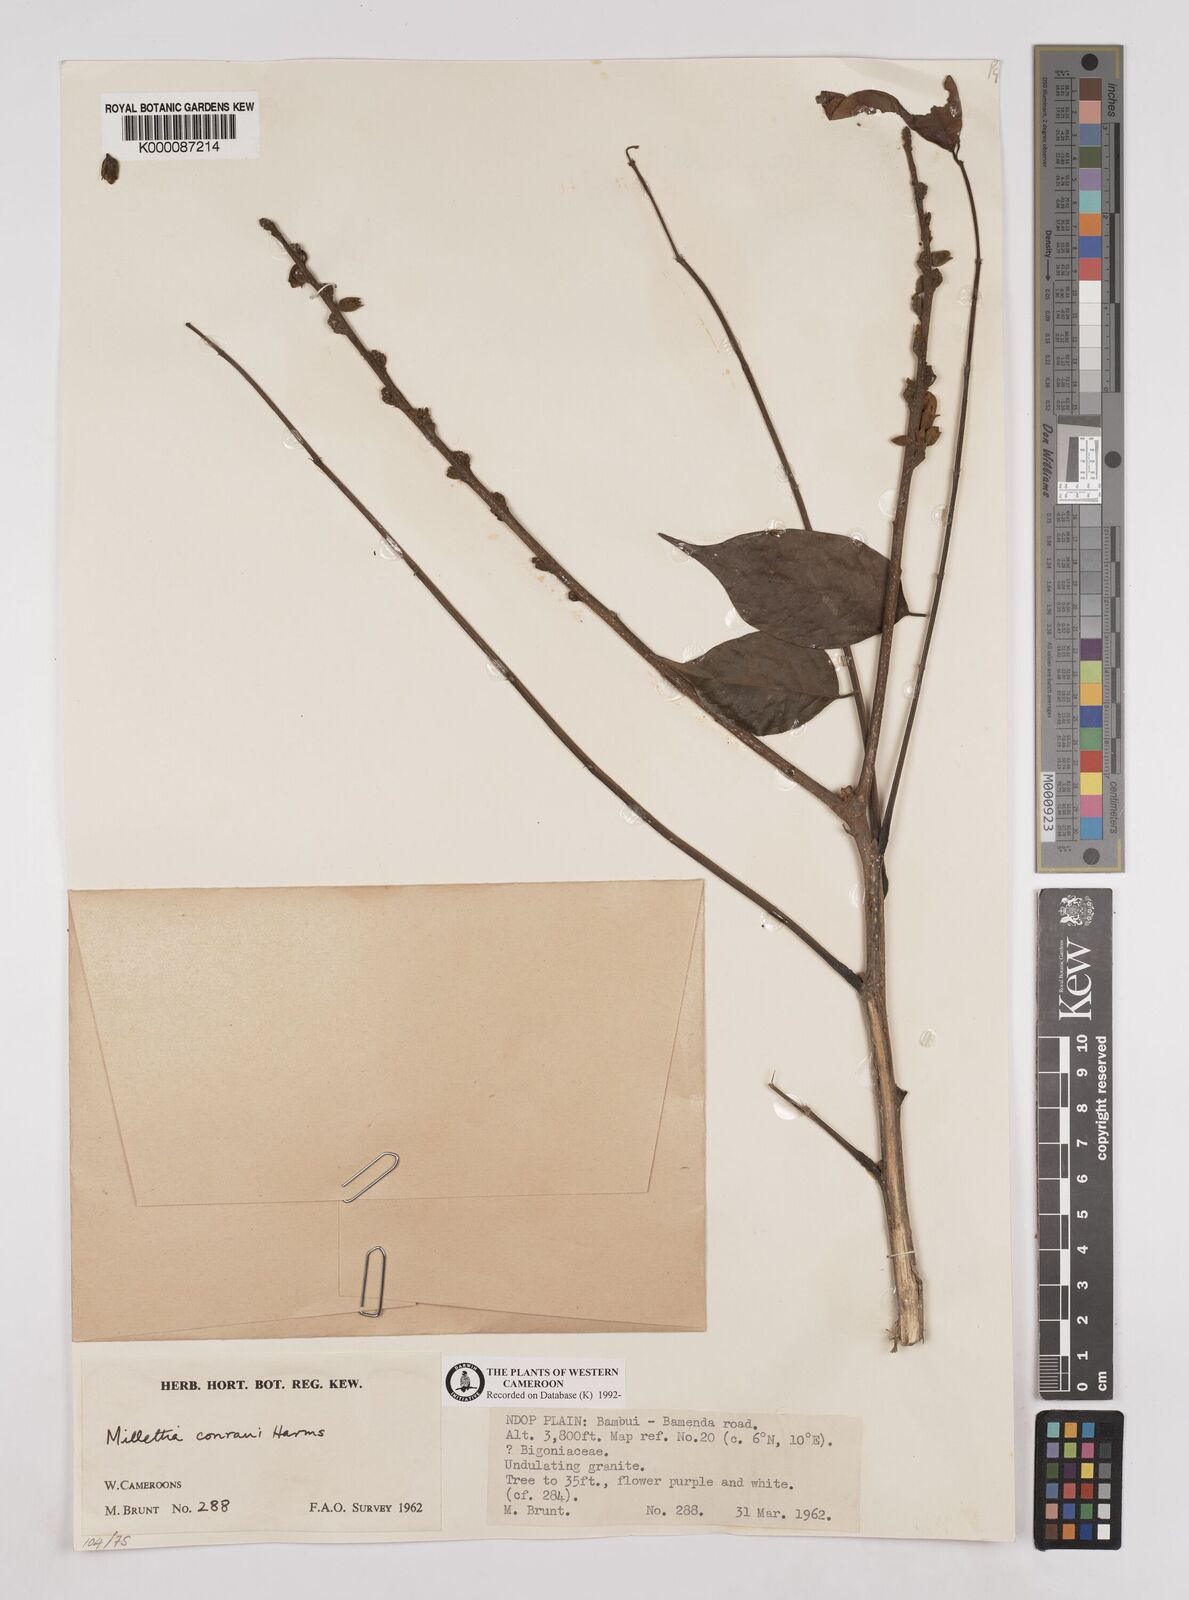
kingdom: Plantae
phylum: Tracheophyta
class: Magnoliopsida
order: Fabales
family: Fabaceae
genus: Millettia
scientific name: Millettia conraui
